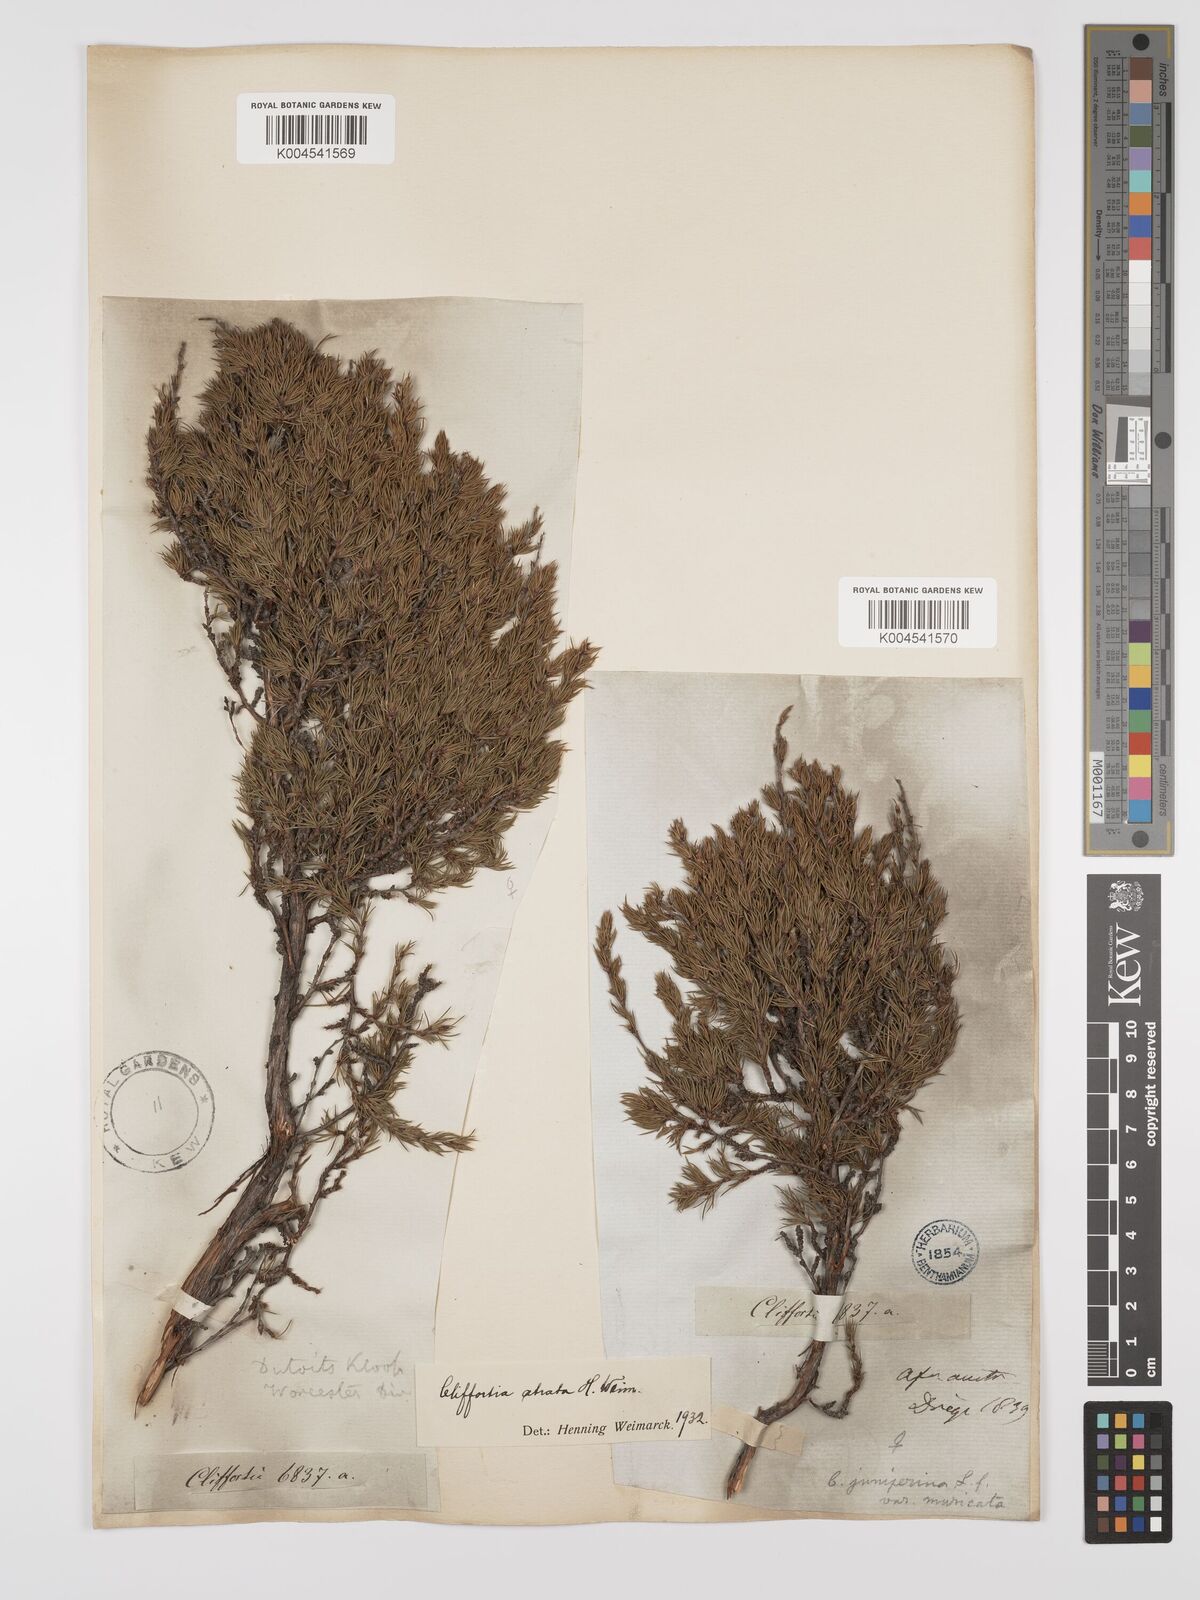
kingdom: Plantae
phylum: Tracheophyta
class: Magnoliopsida
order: Rosales
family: Rosaceae
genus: Cliffortia
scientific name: Cliffortia atrata
